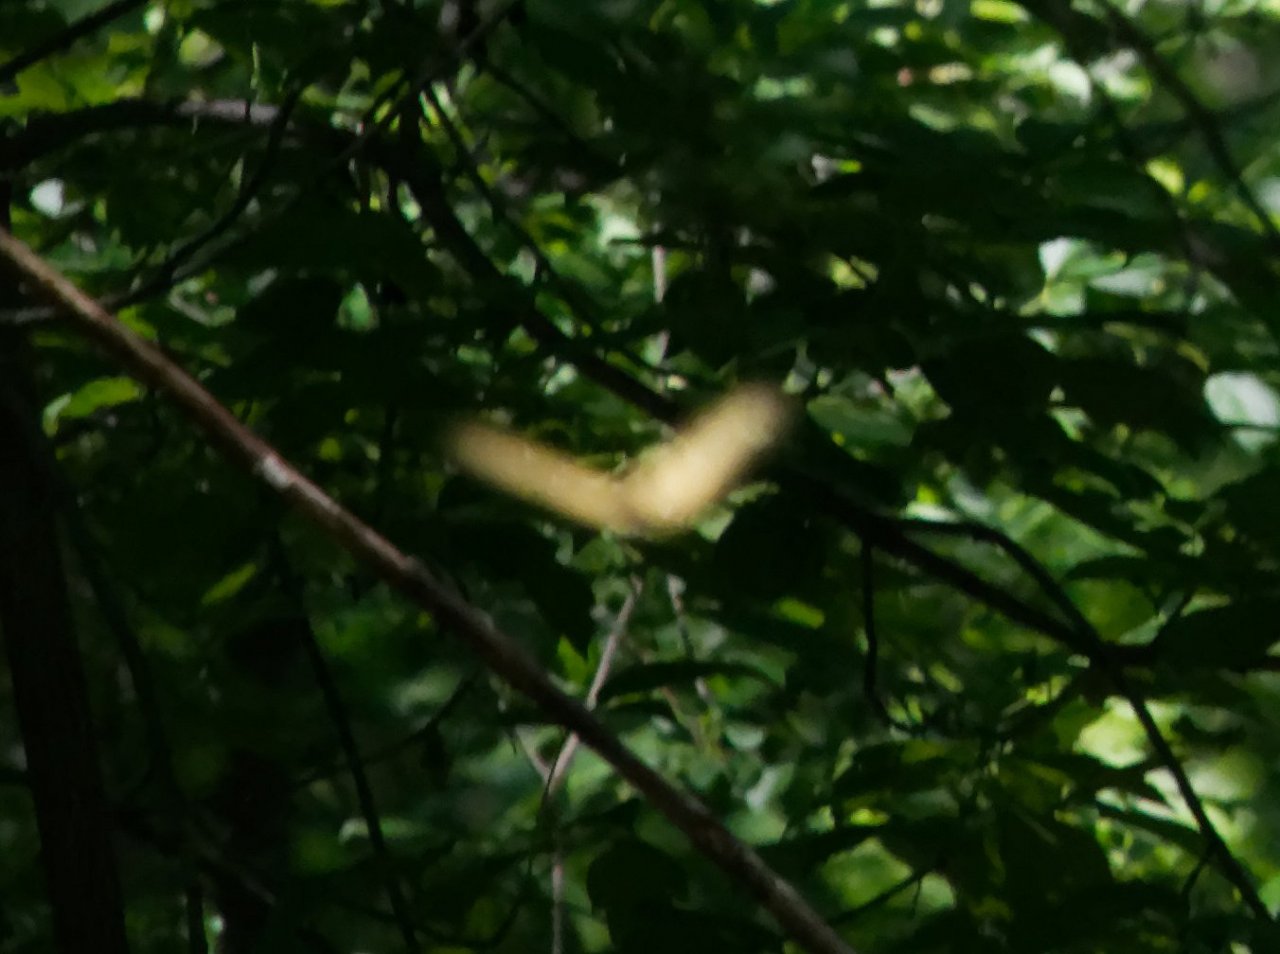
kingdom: Animalia
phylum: Arthropoda
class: Insecta
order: Lepidoptera
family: Papilionidae
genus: Pterourus
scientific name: Pterourus
